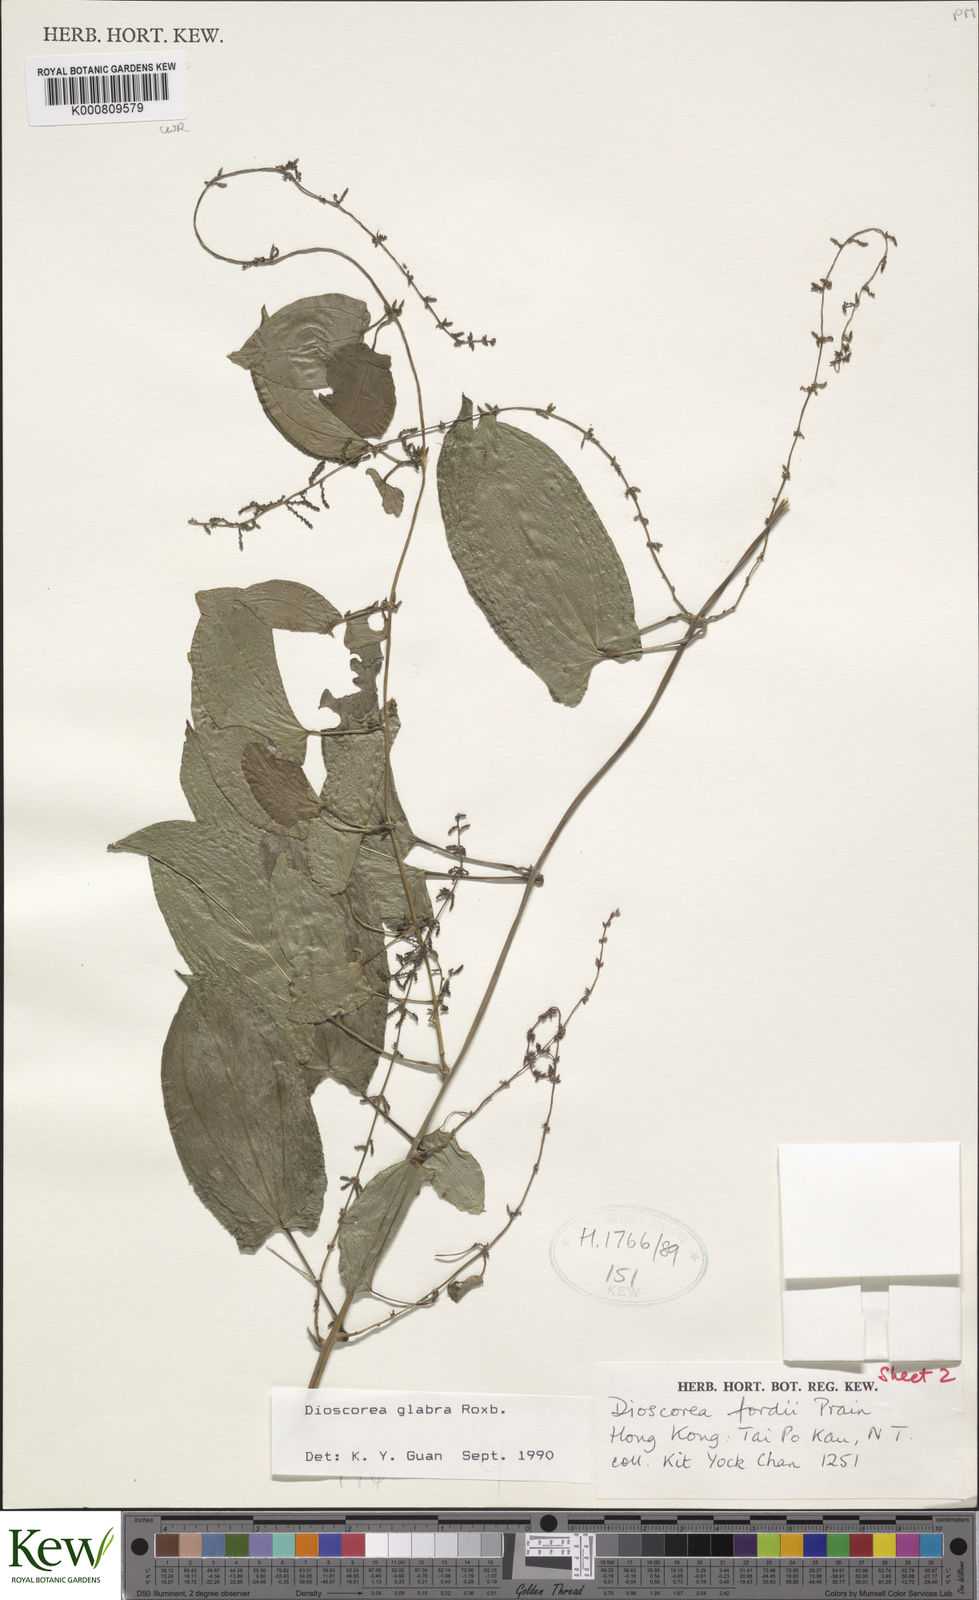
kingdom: Plantae
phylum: Tracheophyta
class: Liliopsida
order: Dioscoreales
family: Dioscoreaceae
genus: Dioscorea
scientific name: Dioscorea glabra
